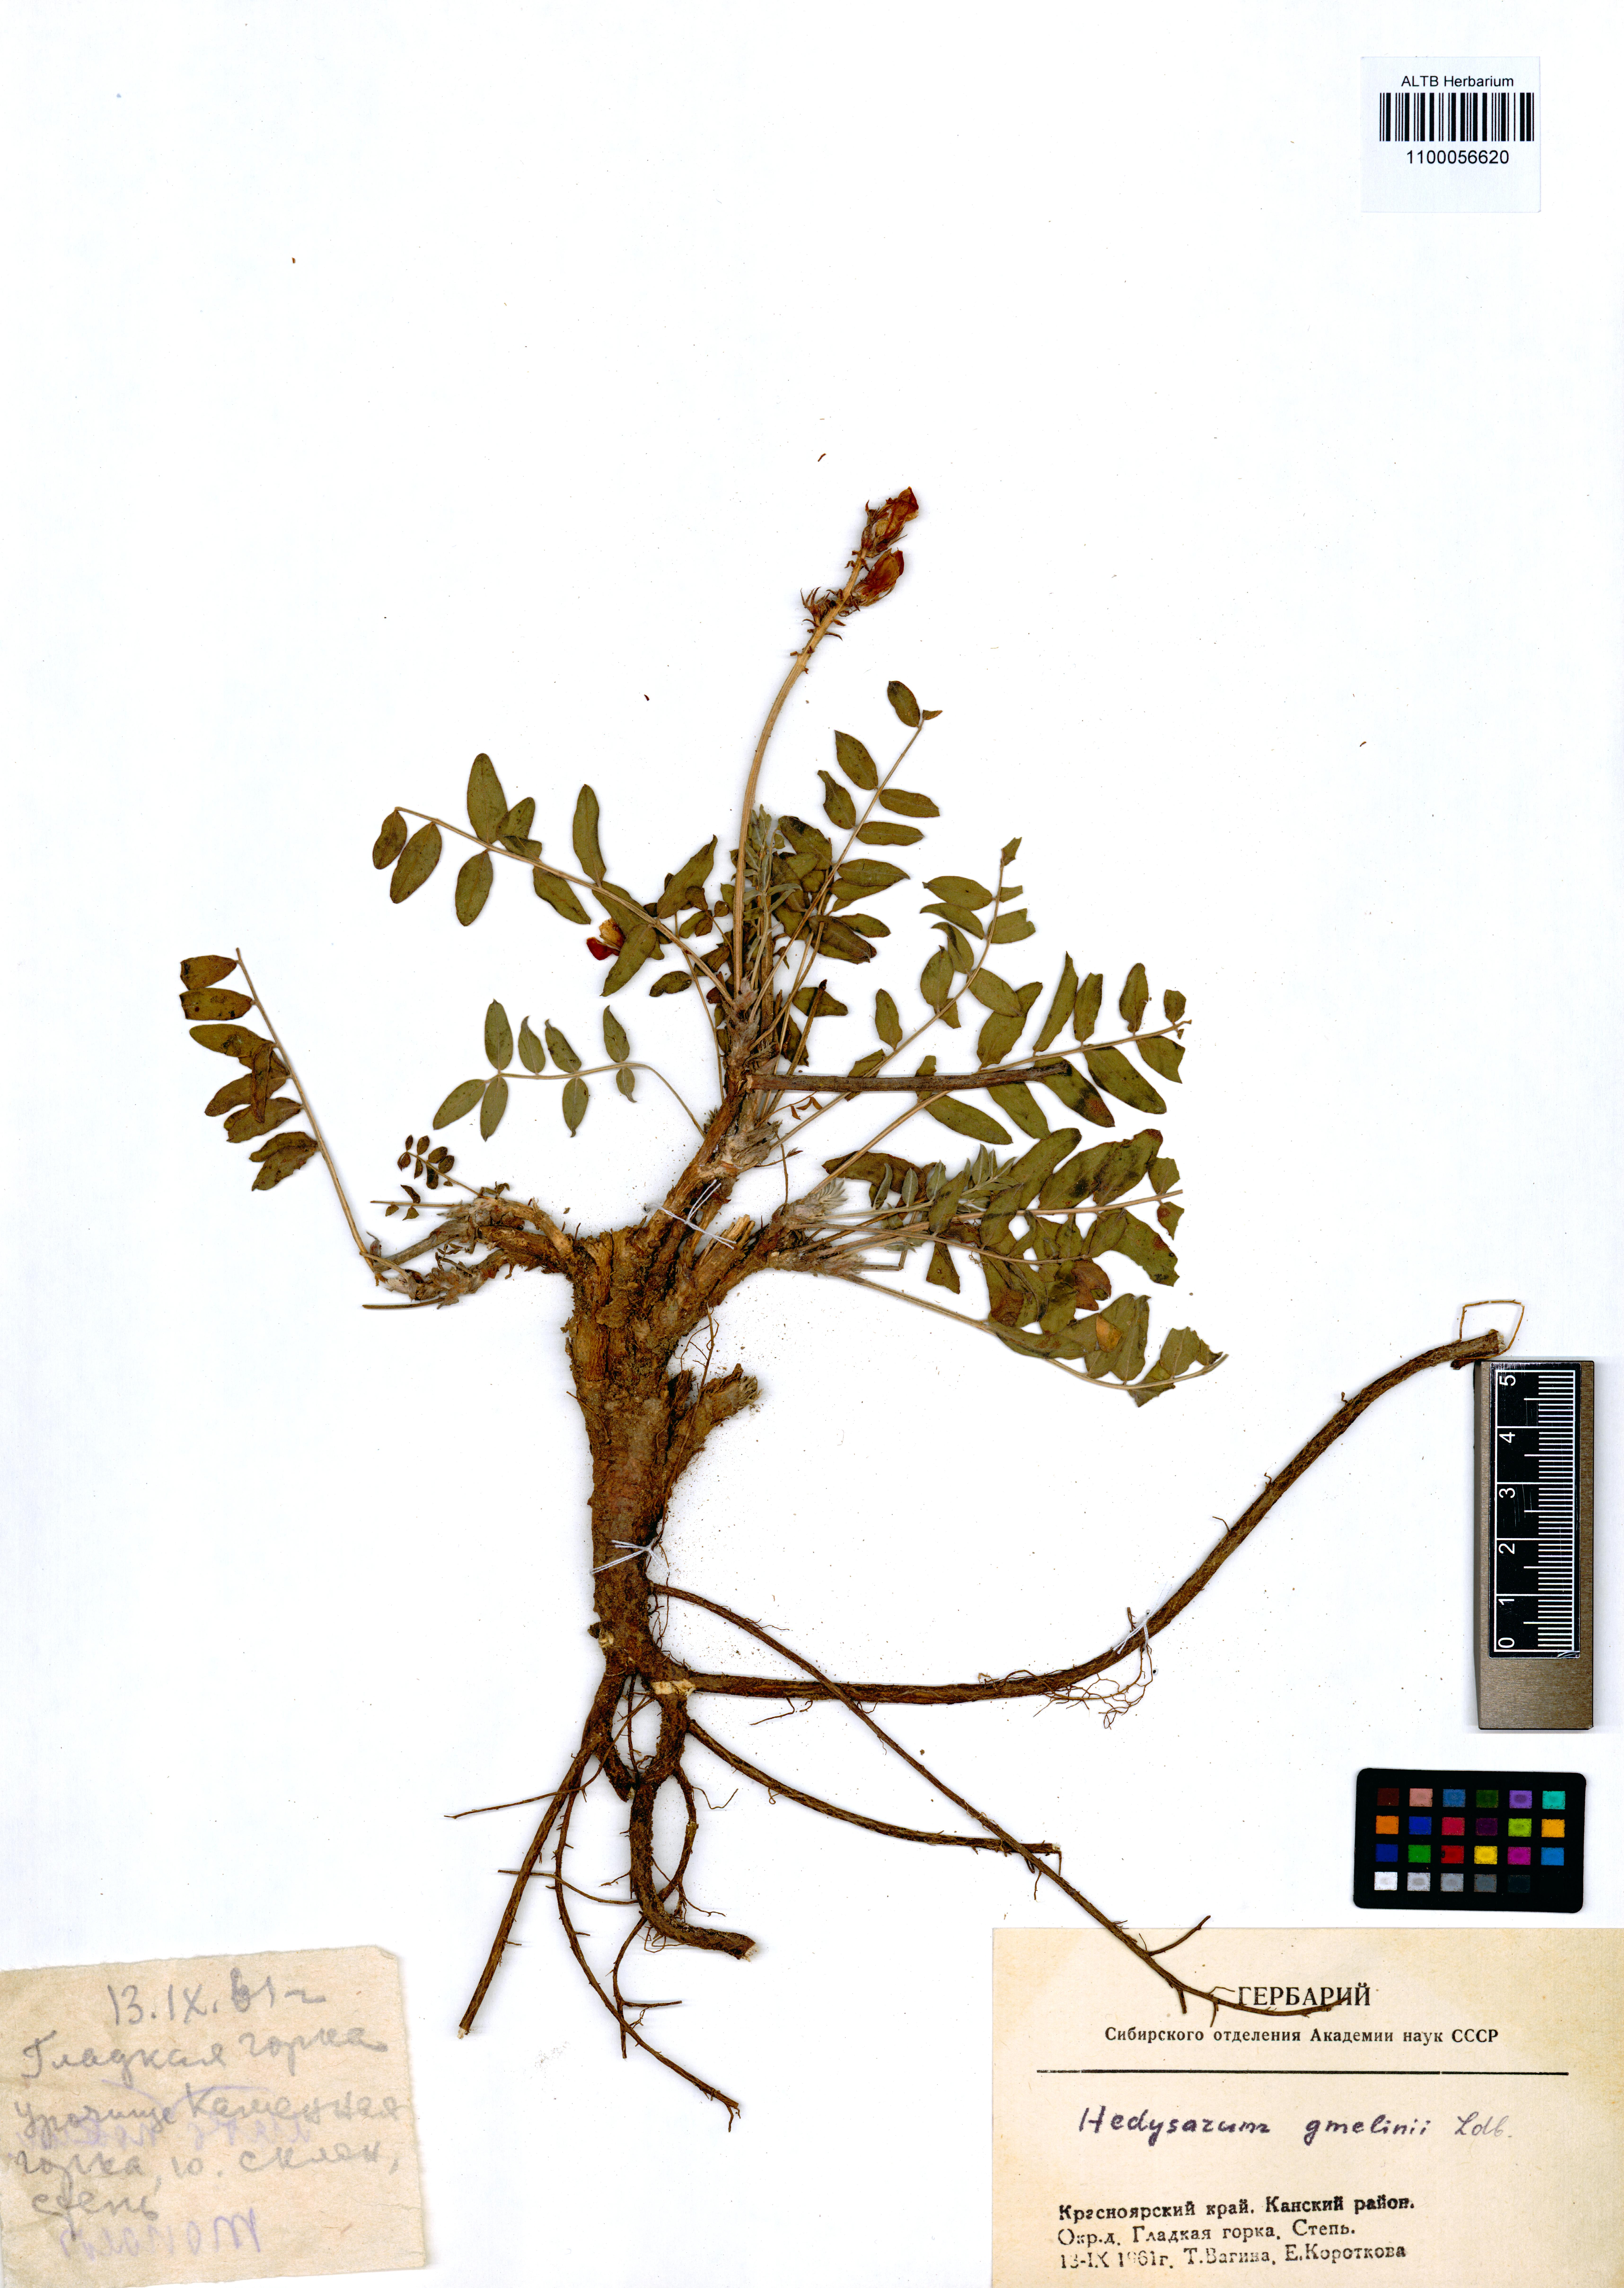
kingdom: Plantae
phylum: Tracheophyta
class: Magnoliopsida
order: Fabales
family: Fabaceae
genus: Hedysarum
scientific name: Hedysarum gmelinii
